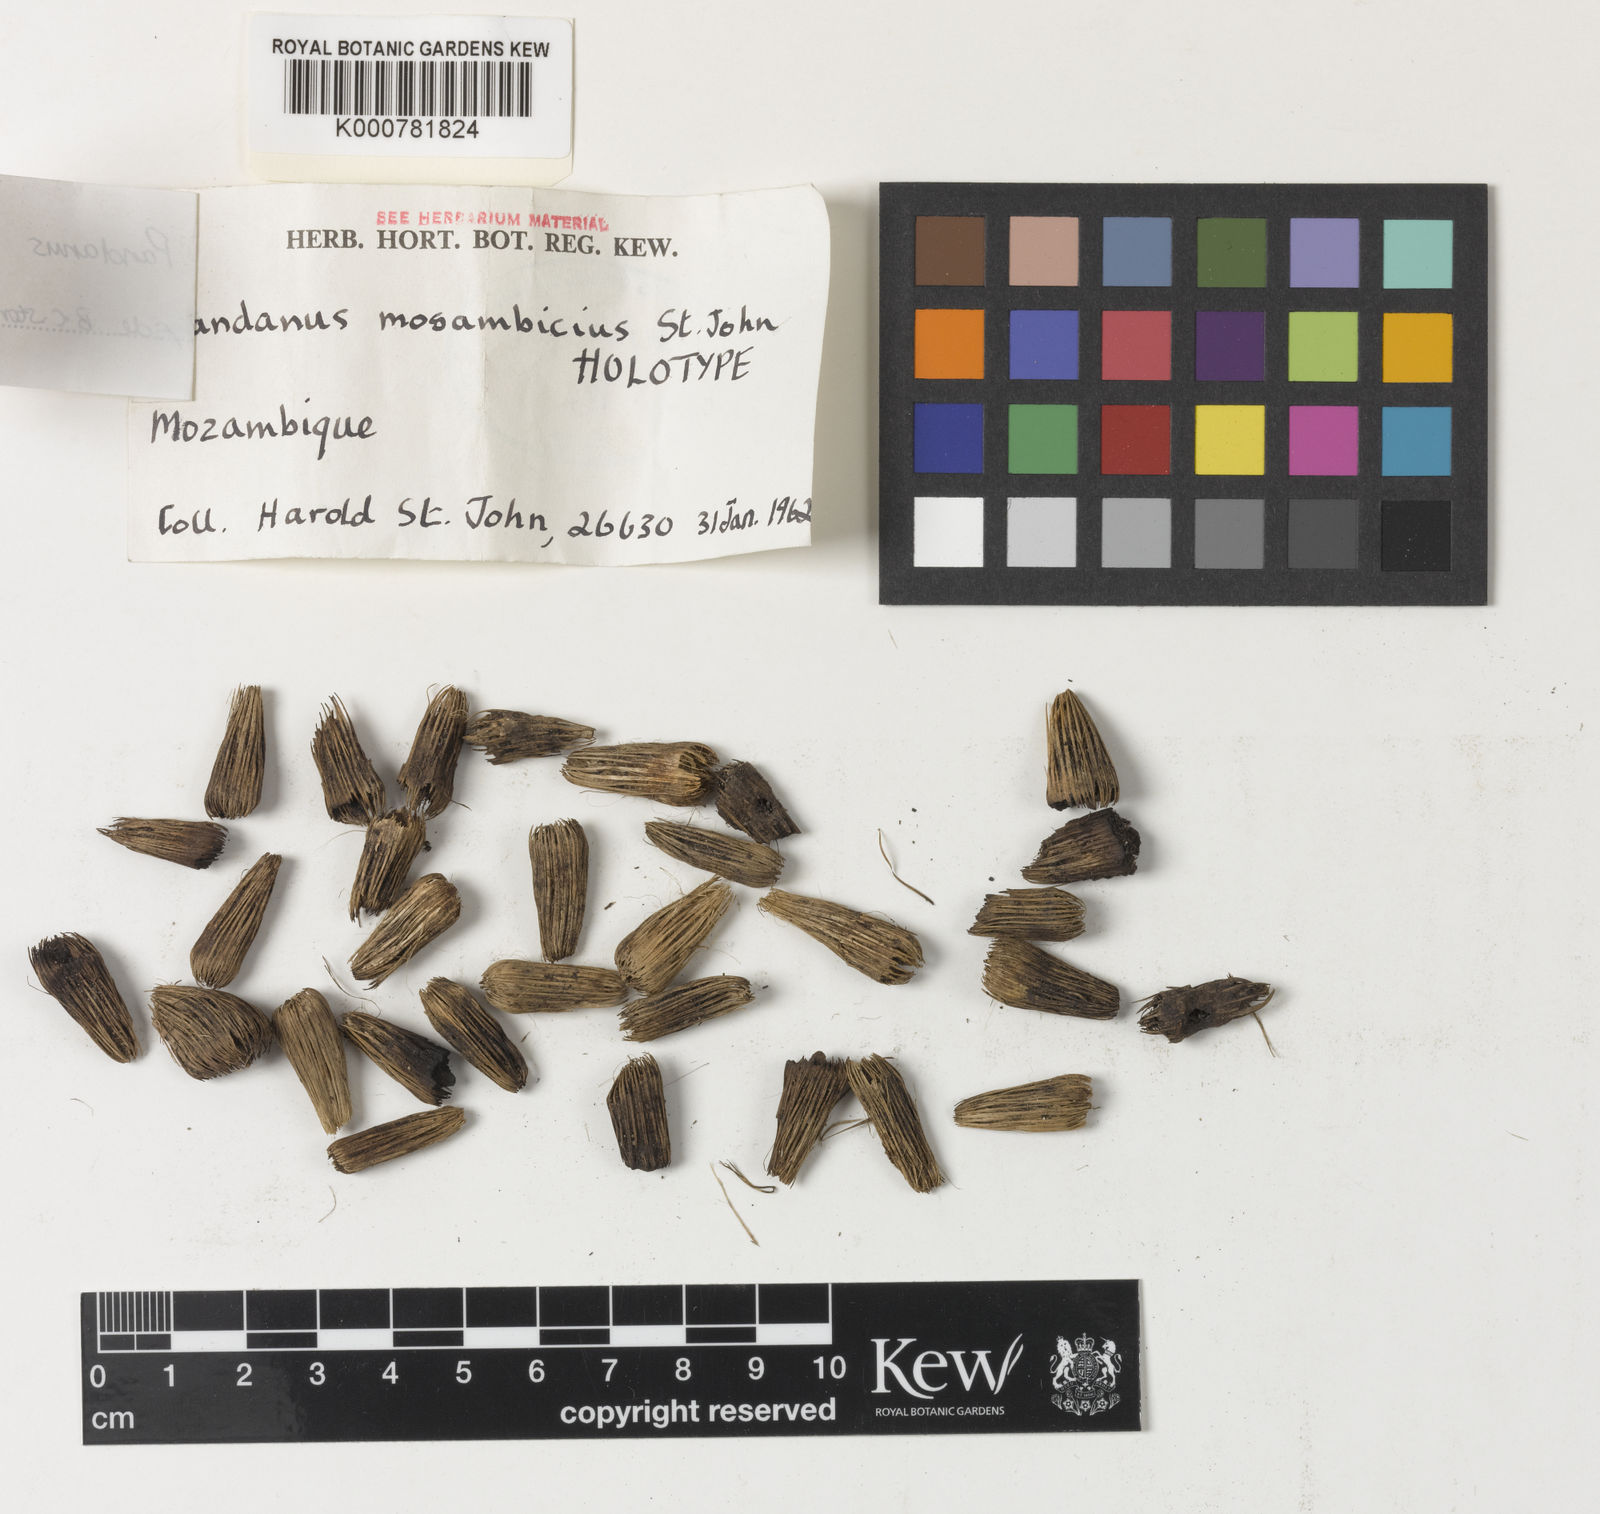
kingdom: Plantae
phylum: Tracheophyta
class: Liliopsida
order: Pandanales
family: Pandanaceae
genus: Pandanus
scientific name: Pandanus livingstonianus
